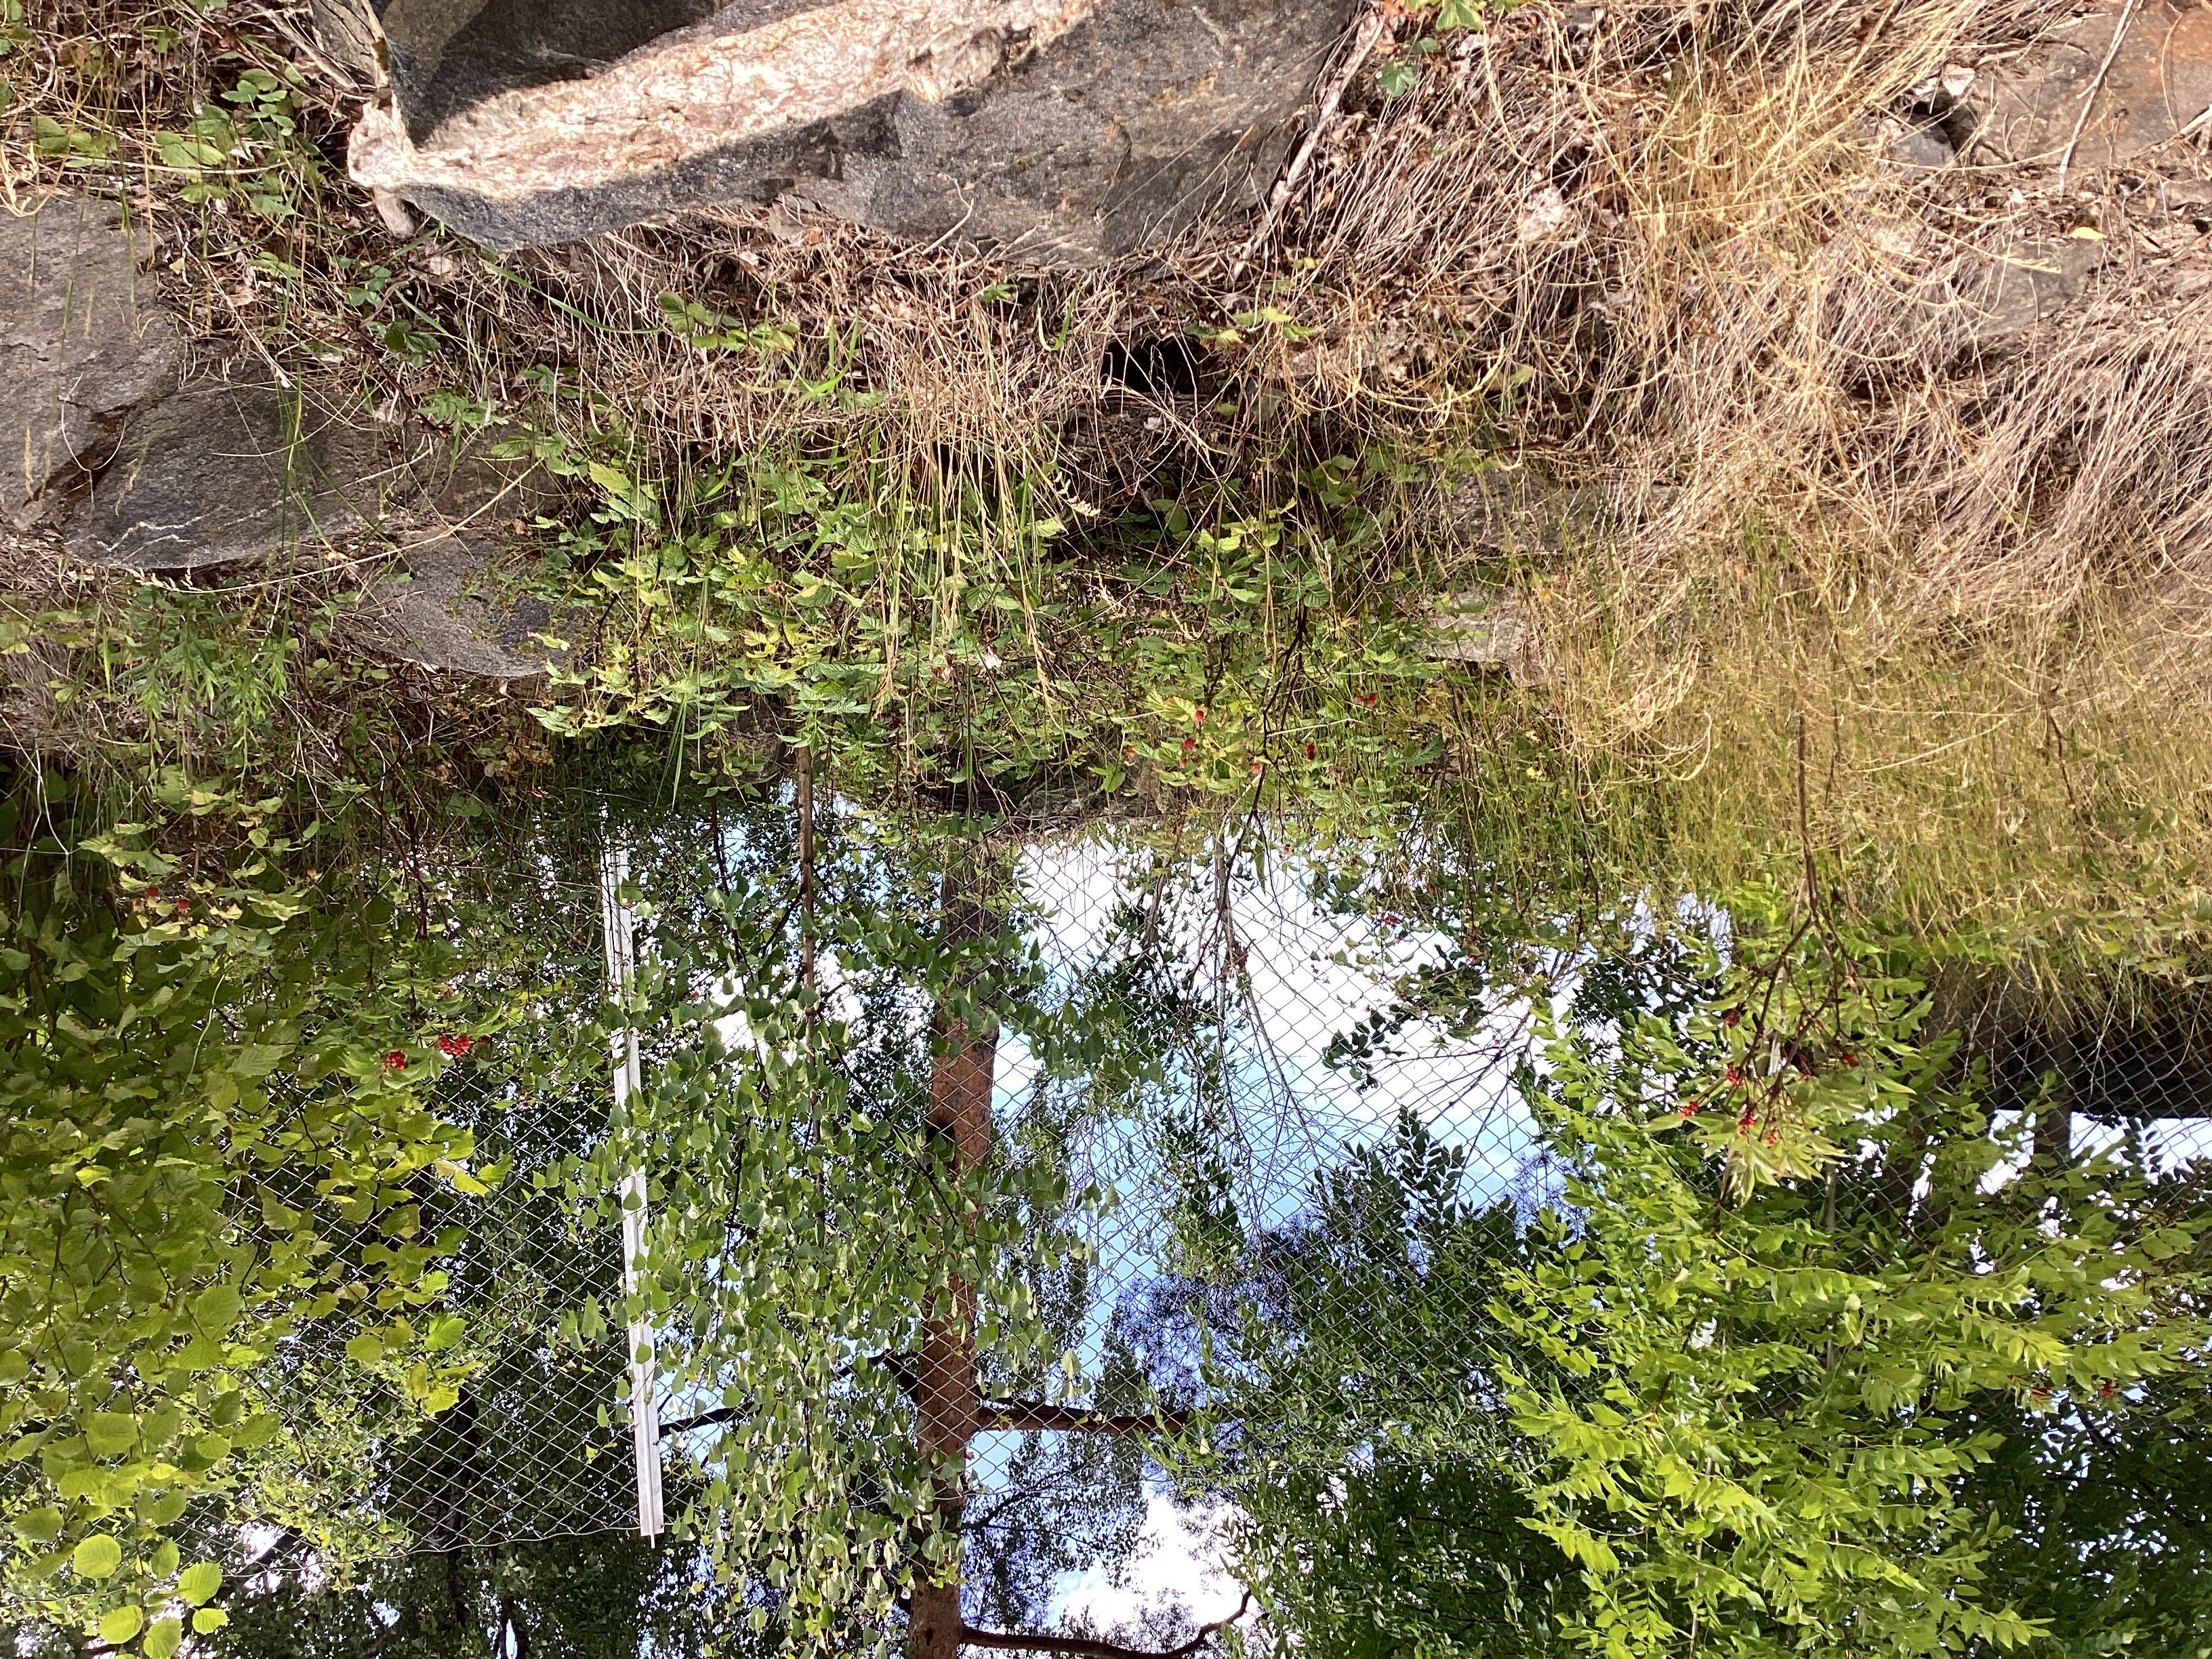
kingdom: Plantae
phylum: Tracheophyta
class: Magnoliopsida
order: Dipsacales
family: Viburnaceae
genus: Sambucus
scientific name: Sambucus racemosa
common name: rødhyll
